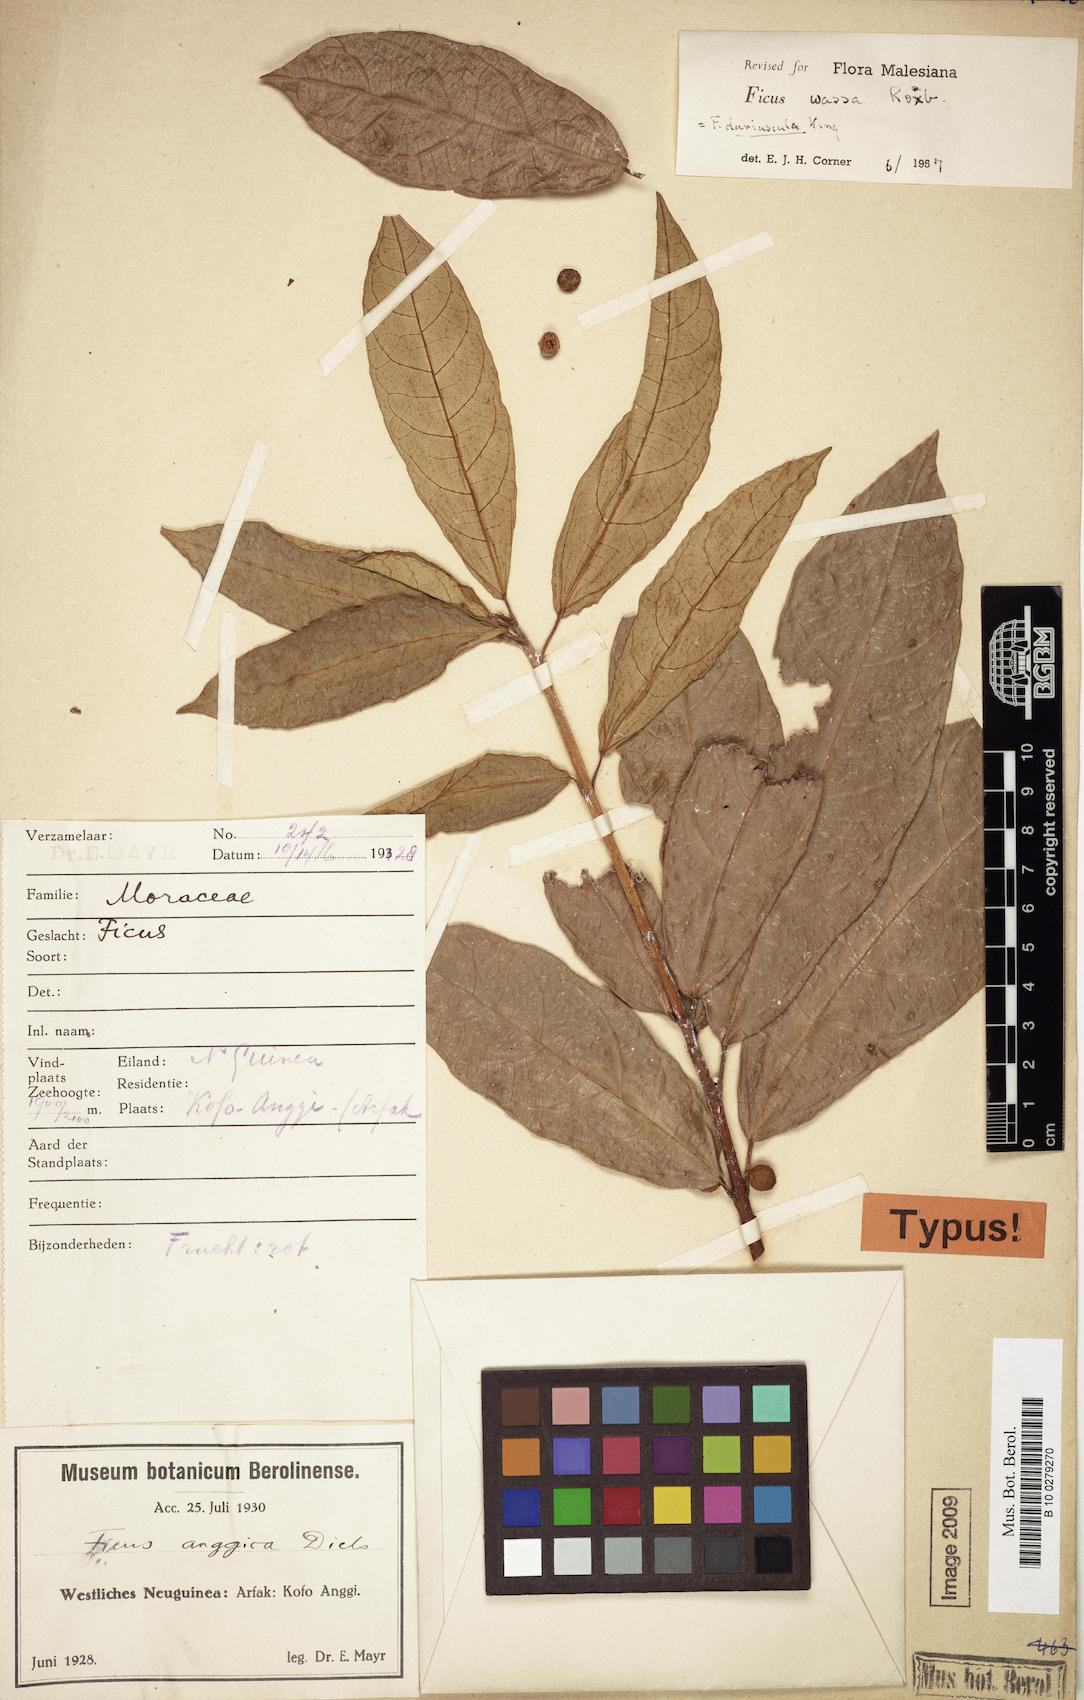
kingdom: Plantae
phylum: Tracheophyta
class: Magnoliopsida
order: Rosales
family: Moraceae
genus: Ficus
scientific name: Ficus wassa
